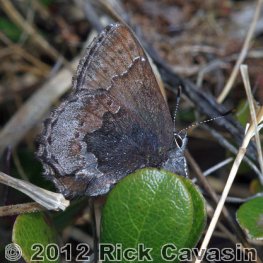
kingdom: Animalia
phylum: Arthropoda
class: Insecta
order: Lepidoptera
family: Lycaenidae
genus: Callophrys
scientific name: Callophrys polios
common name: Hoary Elfin
